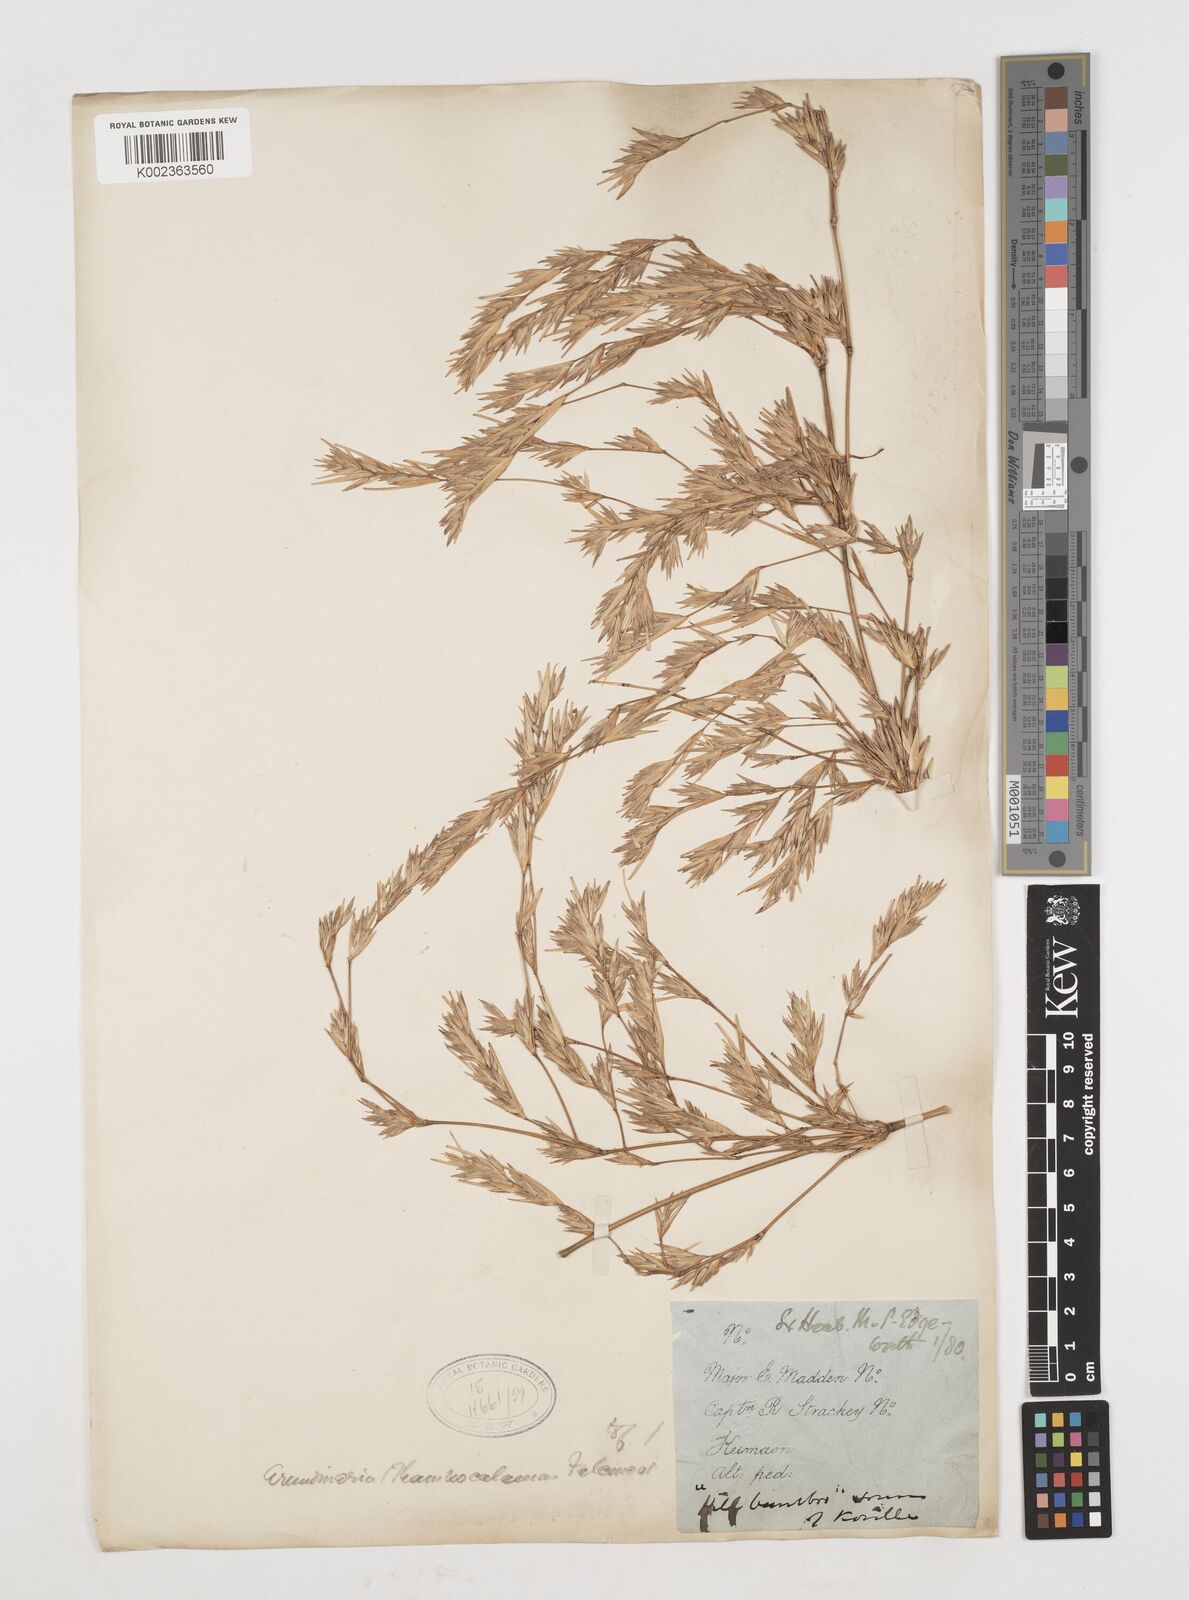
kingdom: Plantae
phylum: Tracheophyta
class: Liliopsida
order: Poales
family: Poaceae
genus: Himalayacalamus
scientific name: Himalayacalamus falconeri
